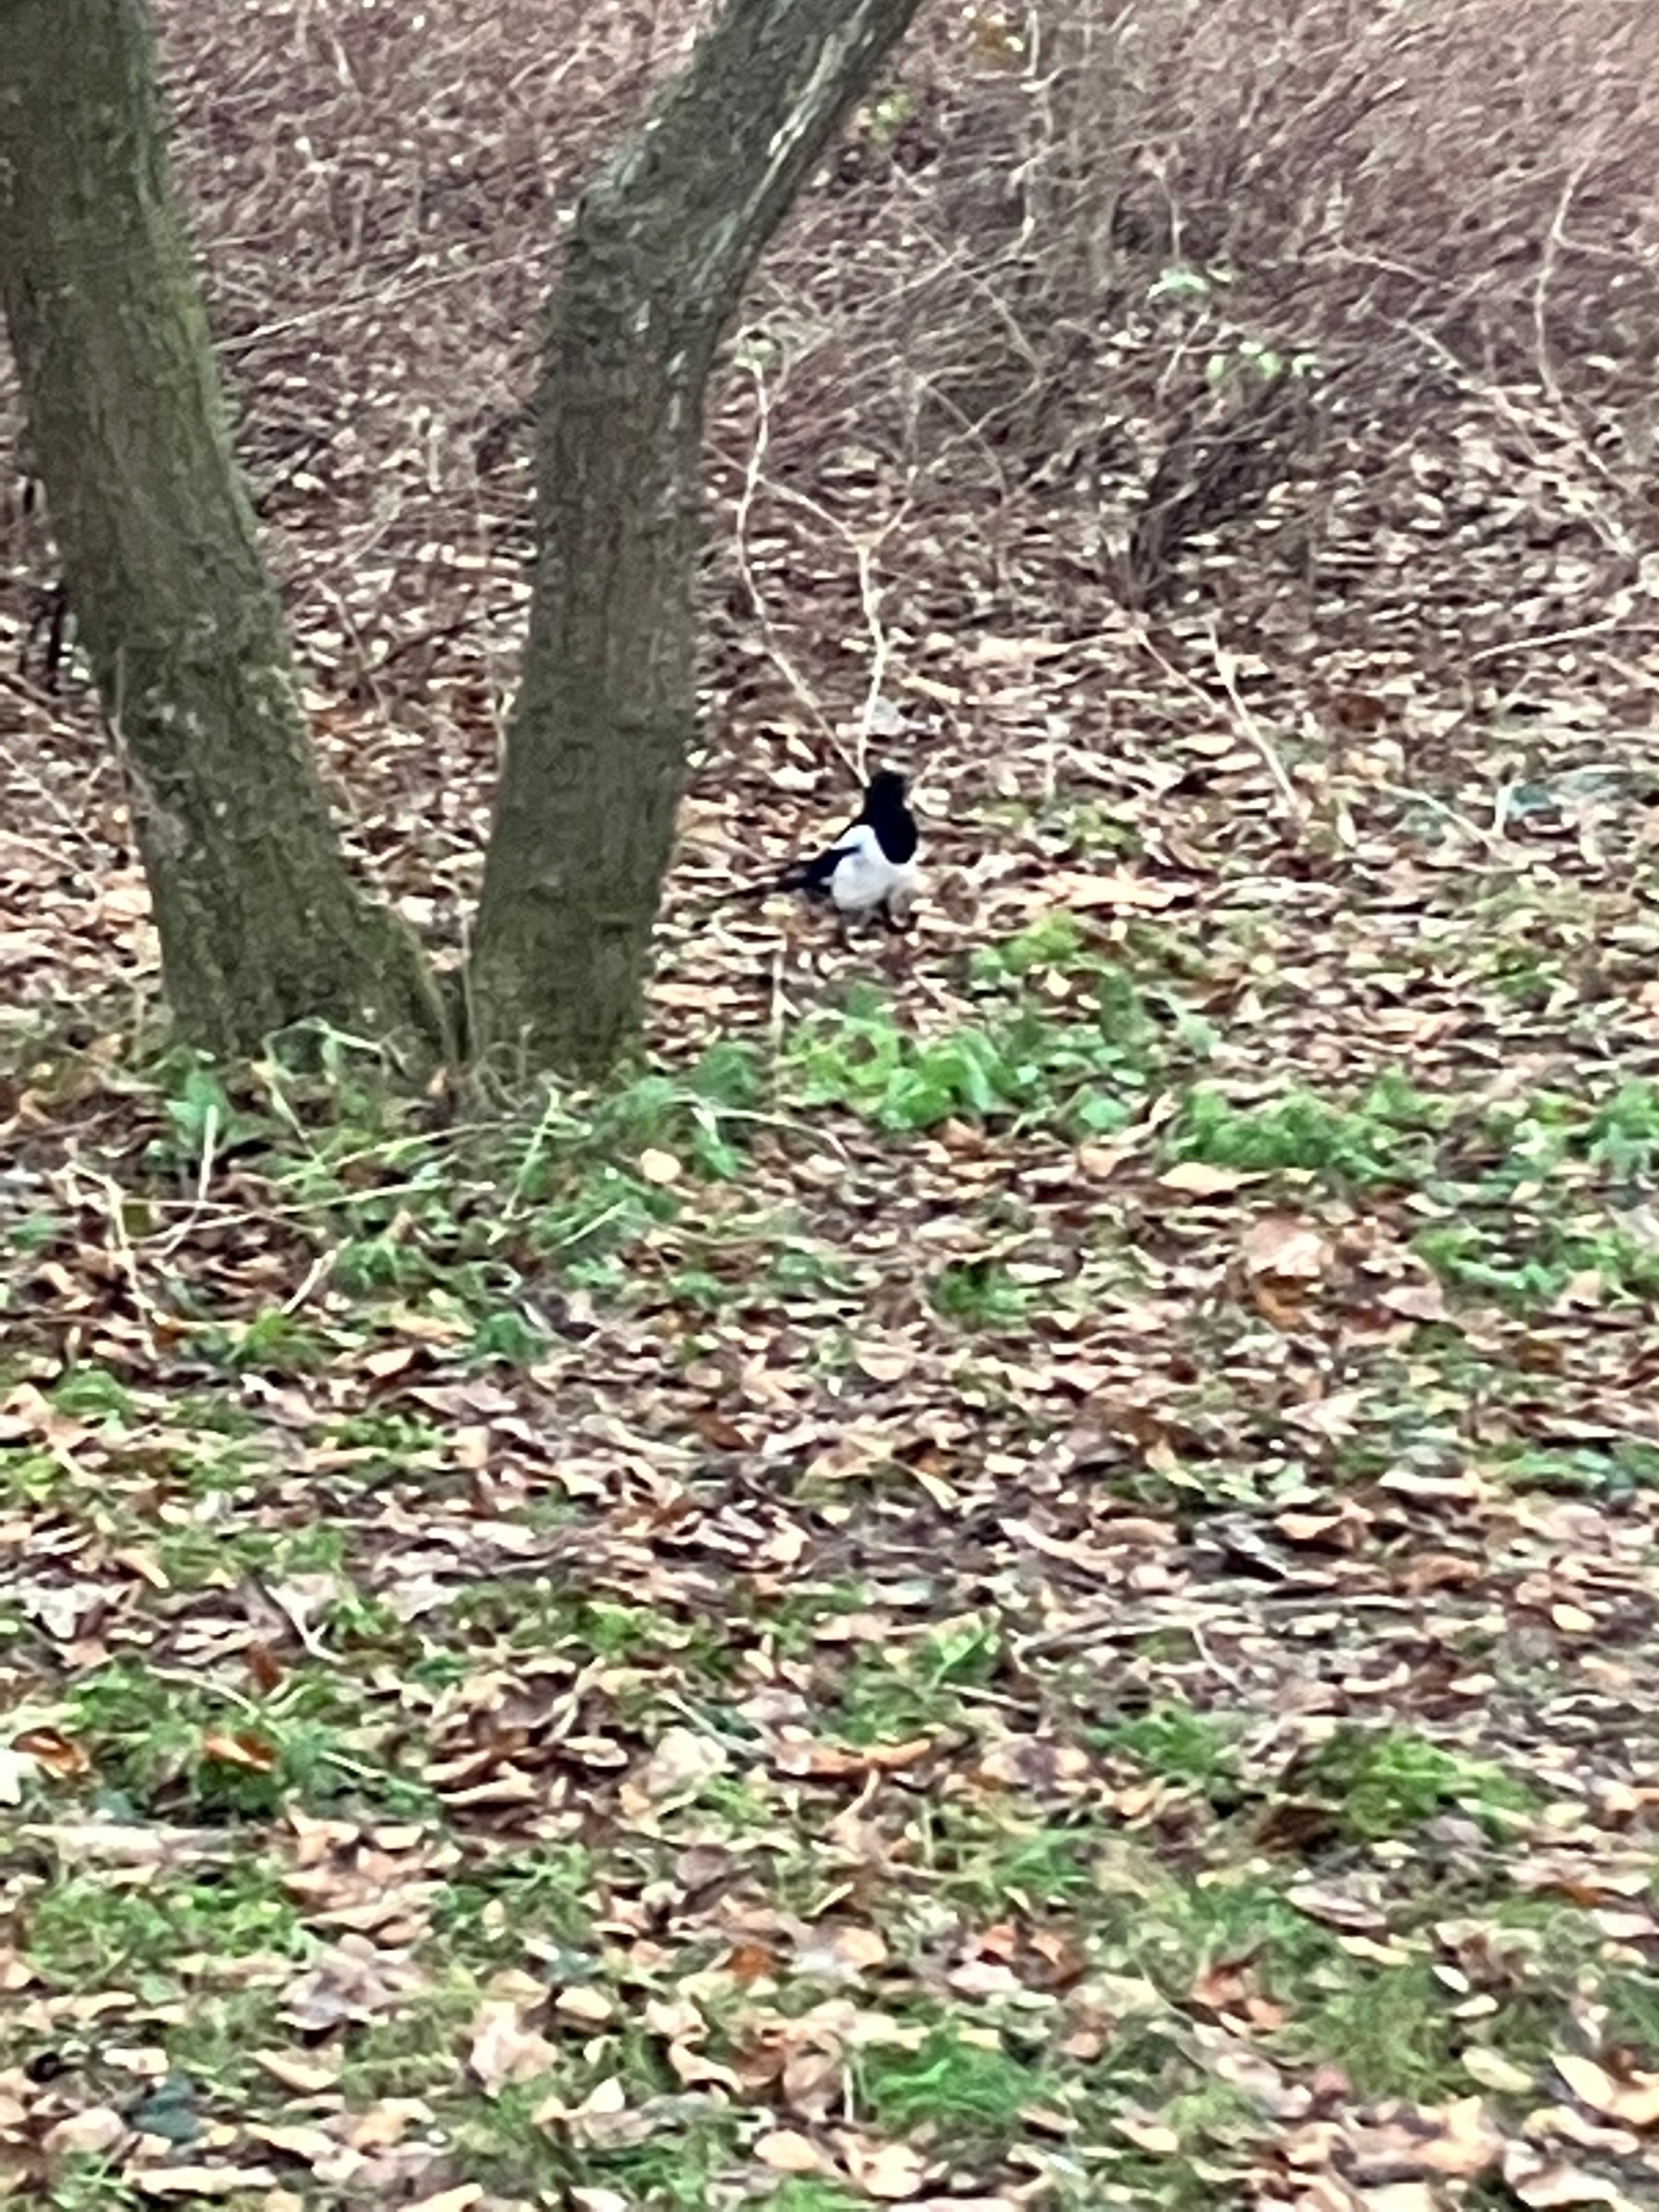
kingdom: Animalia
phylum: Chordata
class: Aves
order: Passeriformes
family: Corvidae
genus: Pica
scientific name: Pica pica
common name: Husskade
